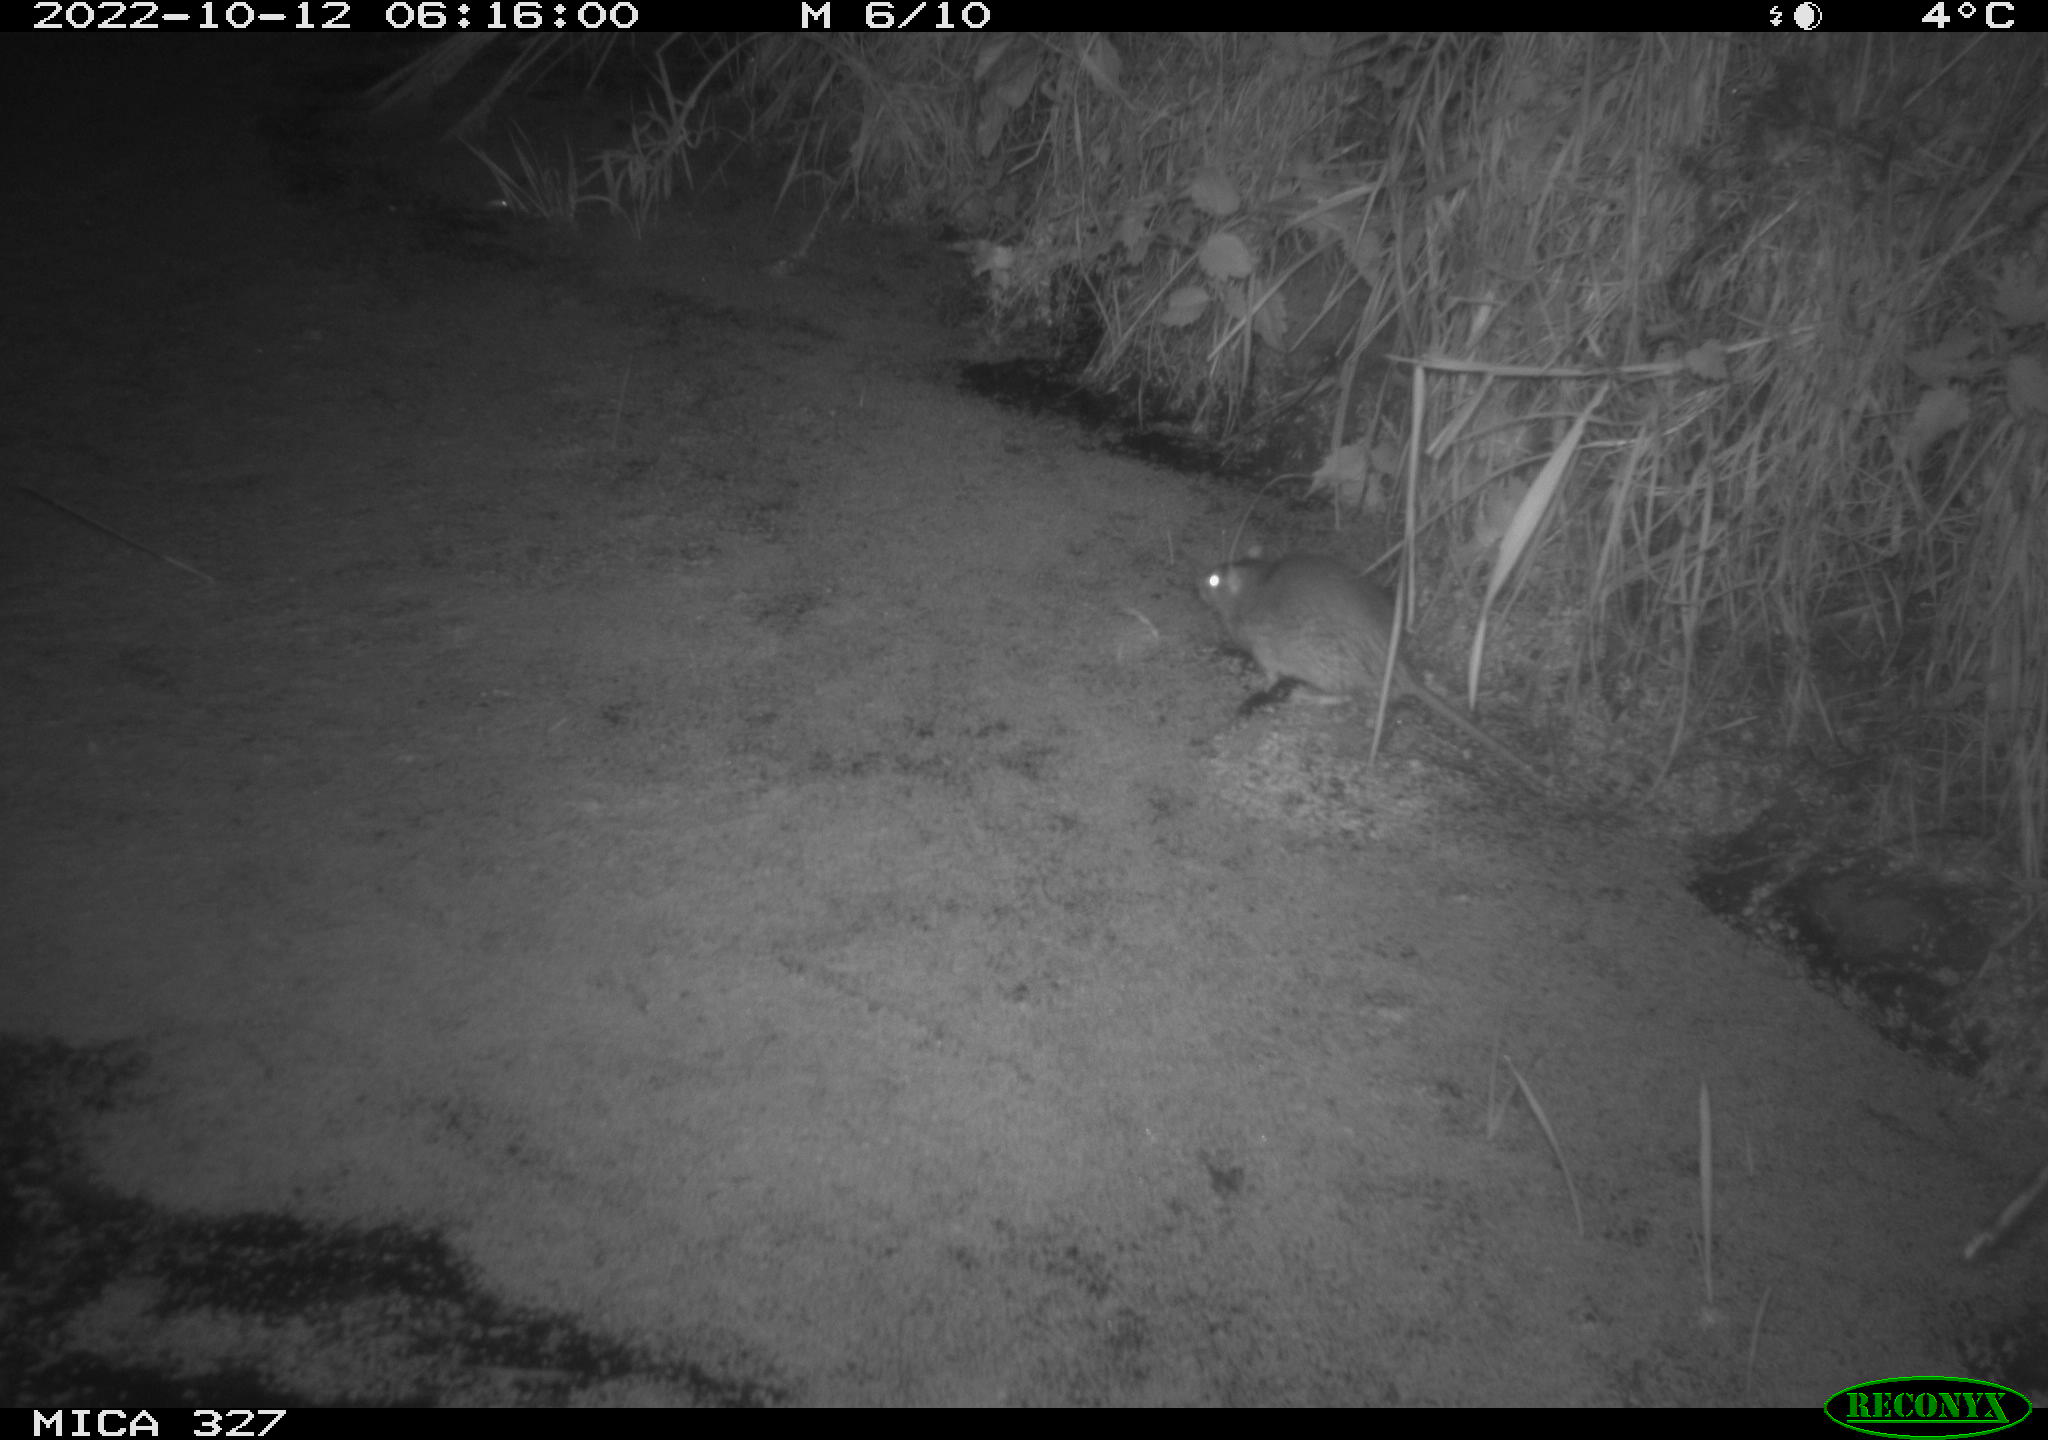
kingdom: Animalia
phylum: Chordata
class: Mammalia
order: Rodentia
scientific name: Rodentia
